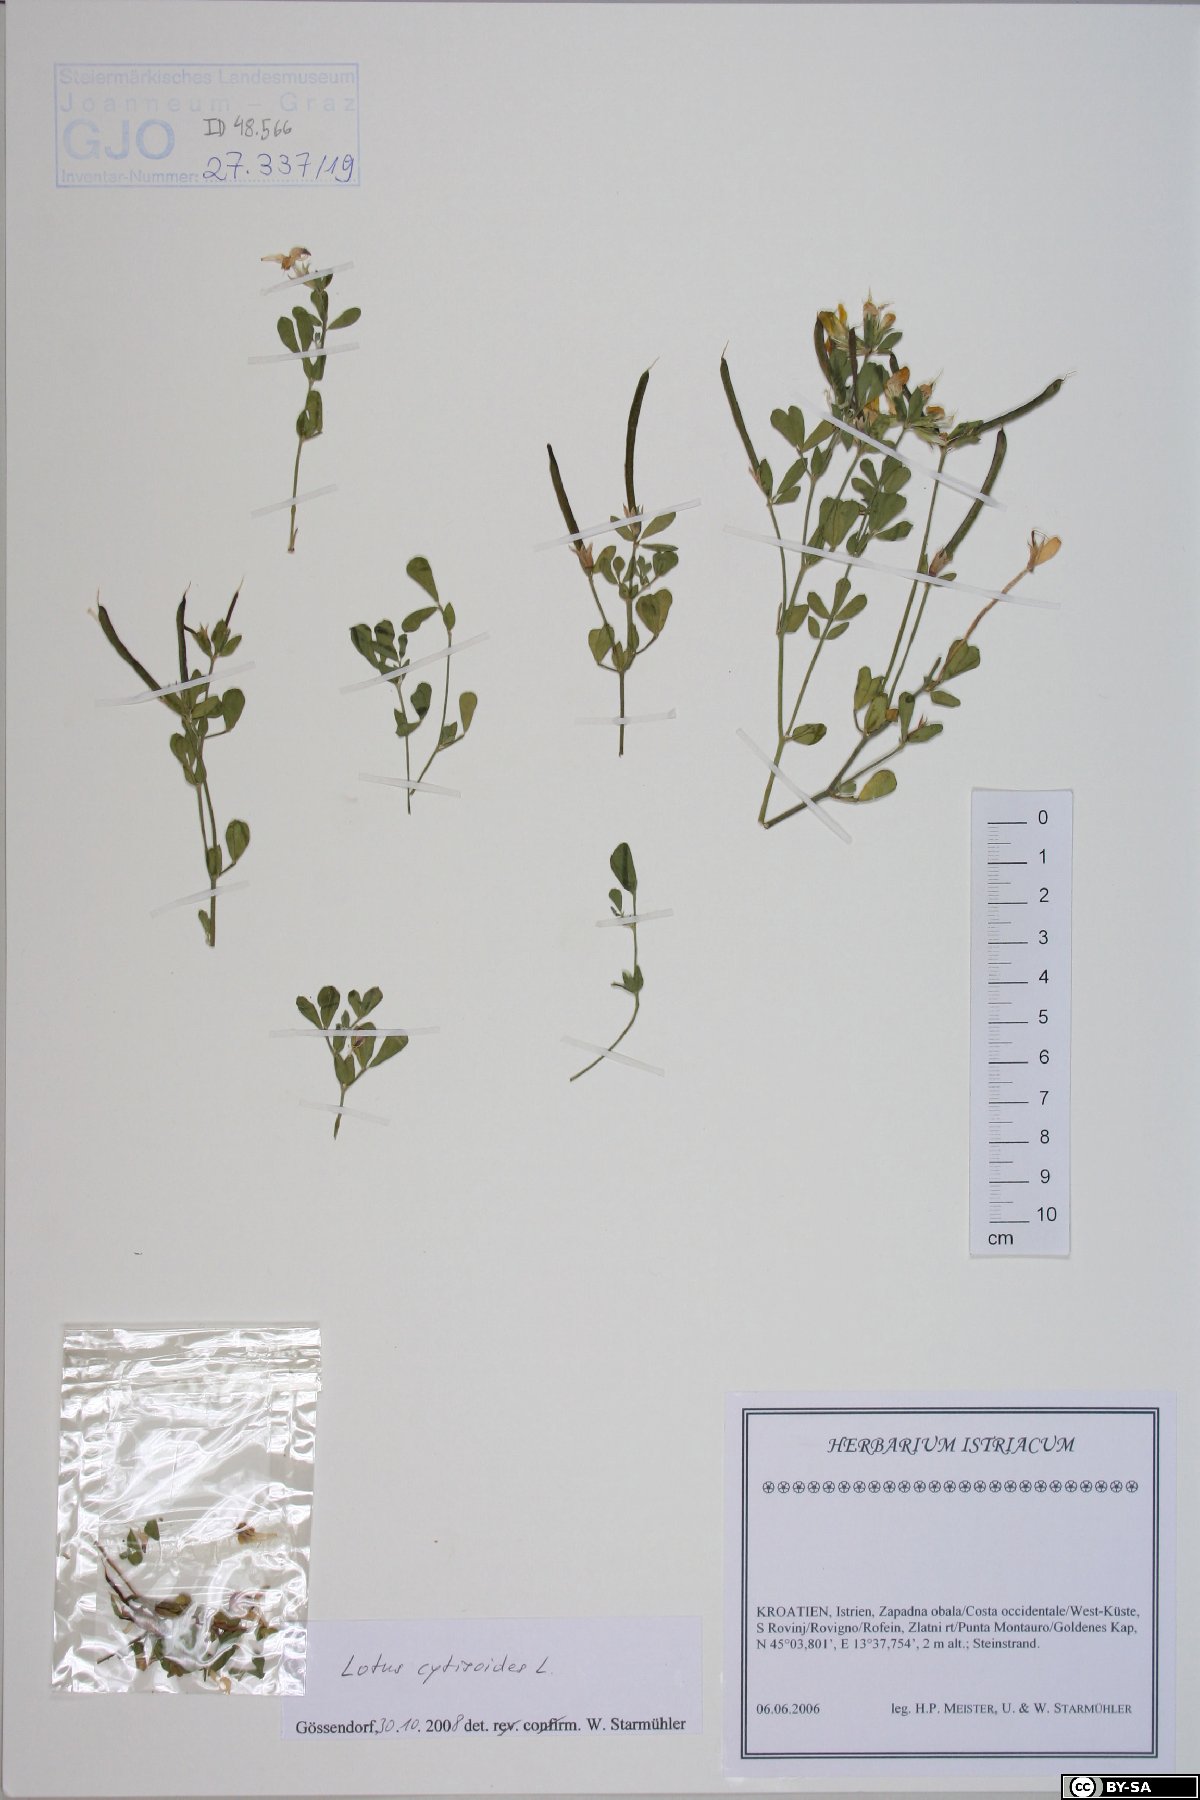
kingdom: Plantae
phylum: Tracheophyta
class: Magnoliopsida
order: Fabales
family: Fabaceae
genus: Lotus
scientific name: Lotus cytisoides
